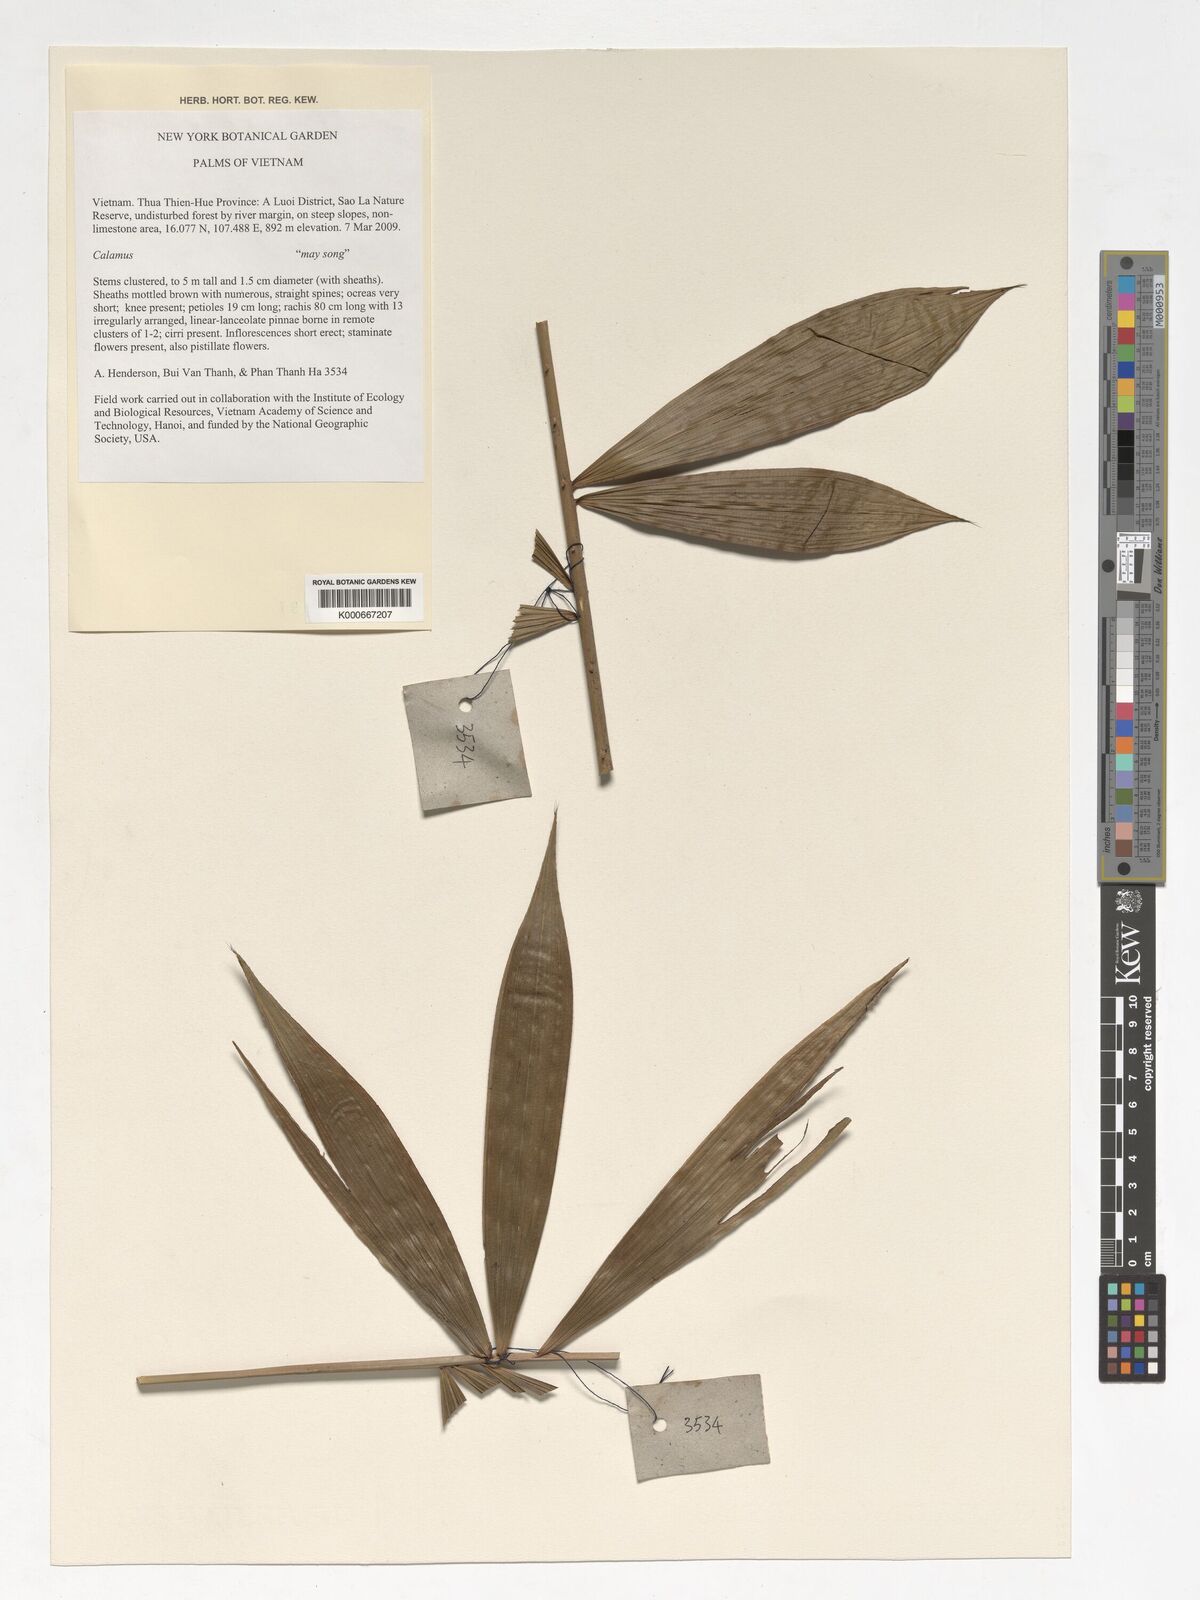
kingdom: Plantae
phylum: Tracheophyta
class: Liliopsida
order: Arecales
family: Arecaceae
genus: Calamus
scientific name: Calamus
